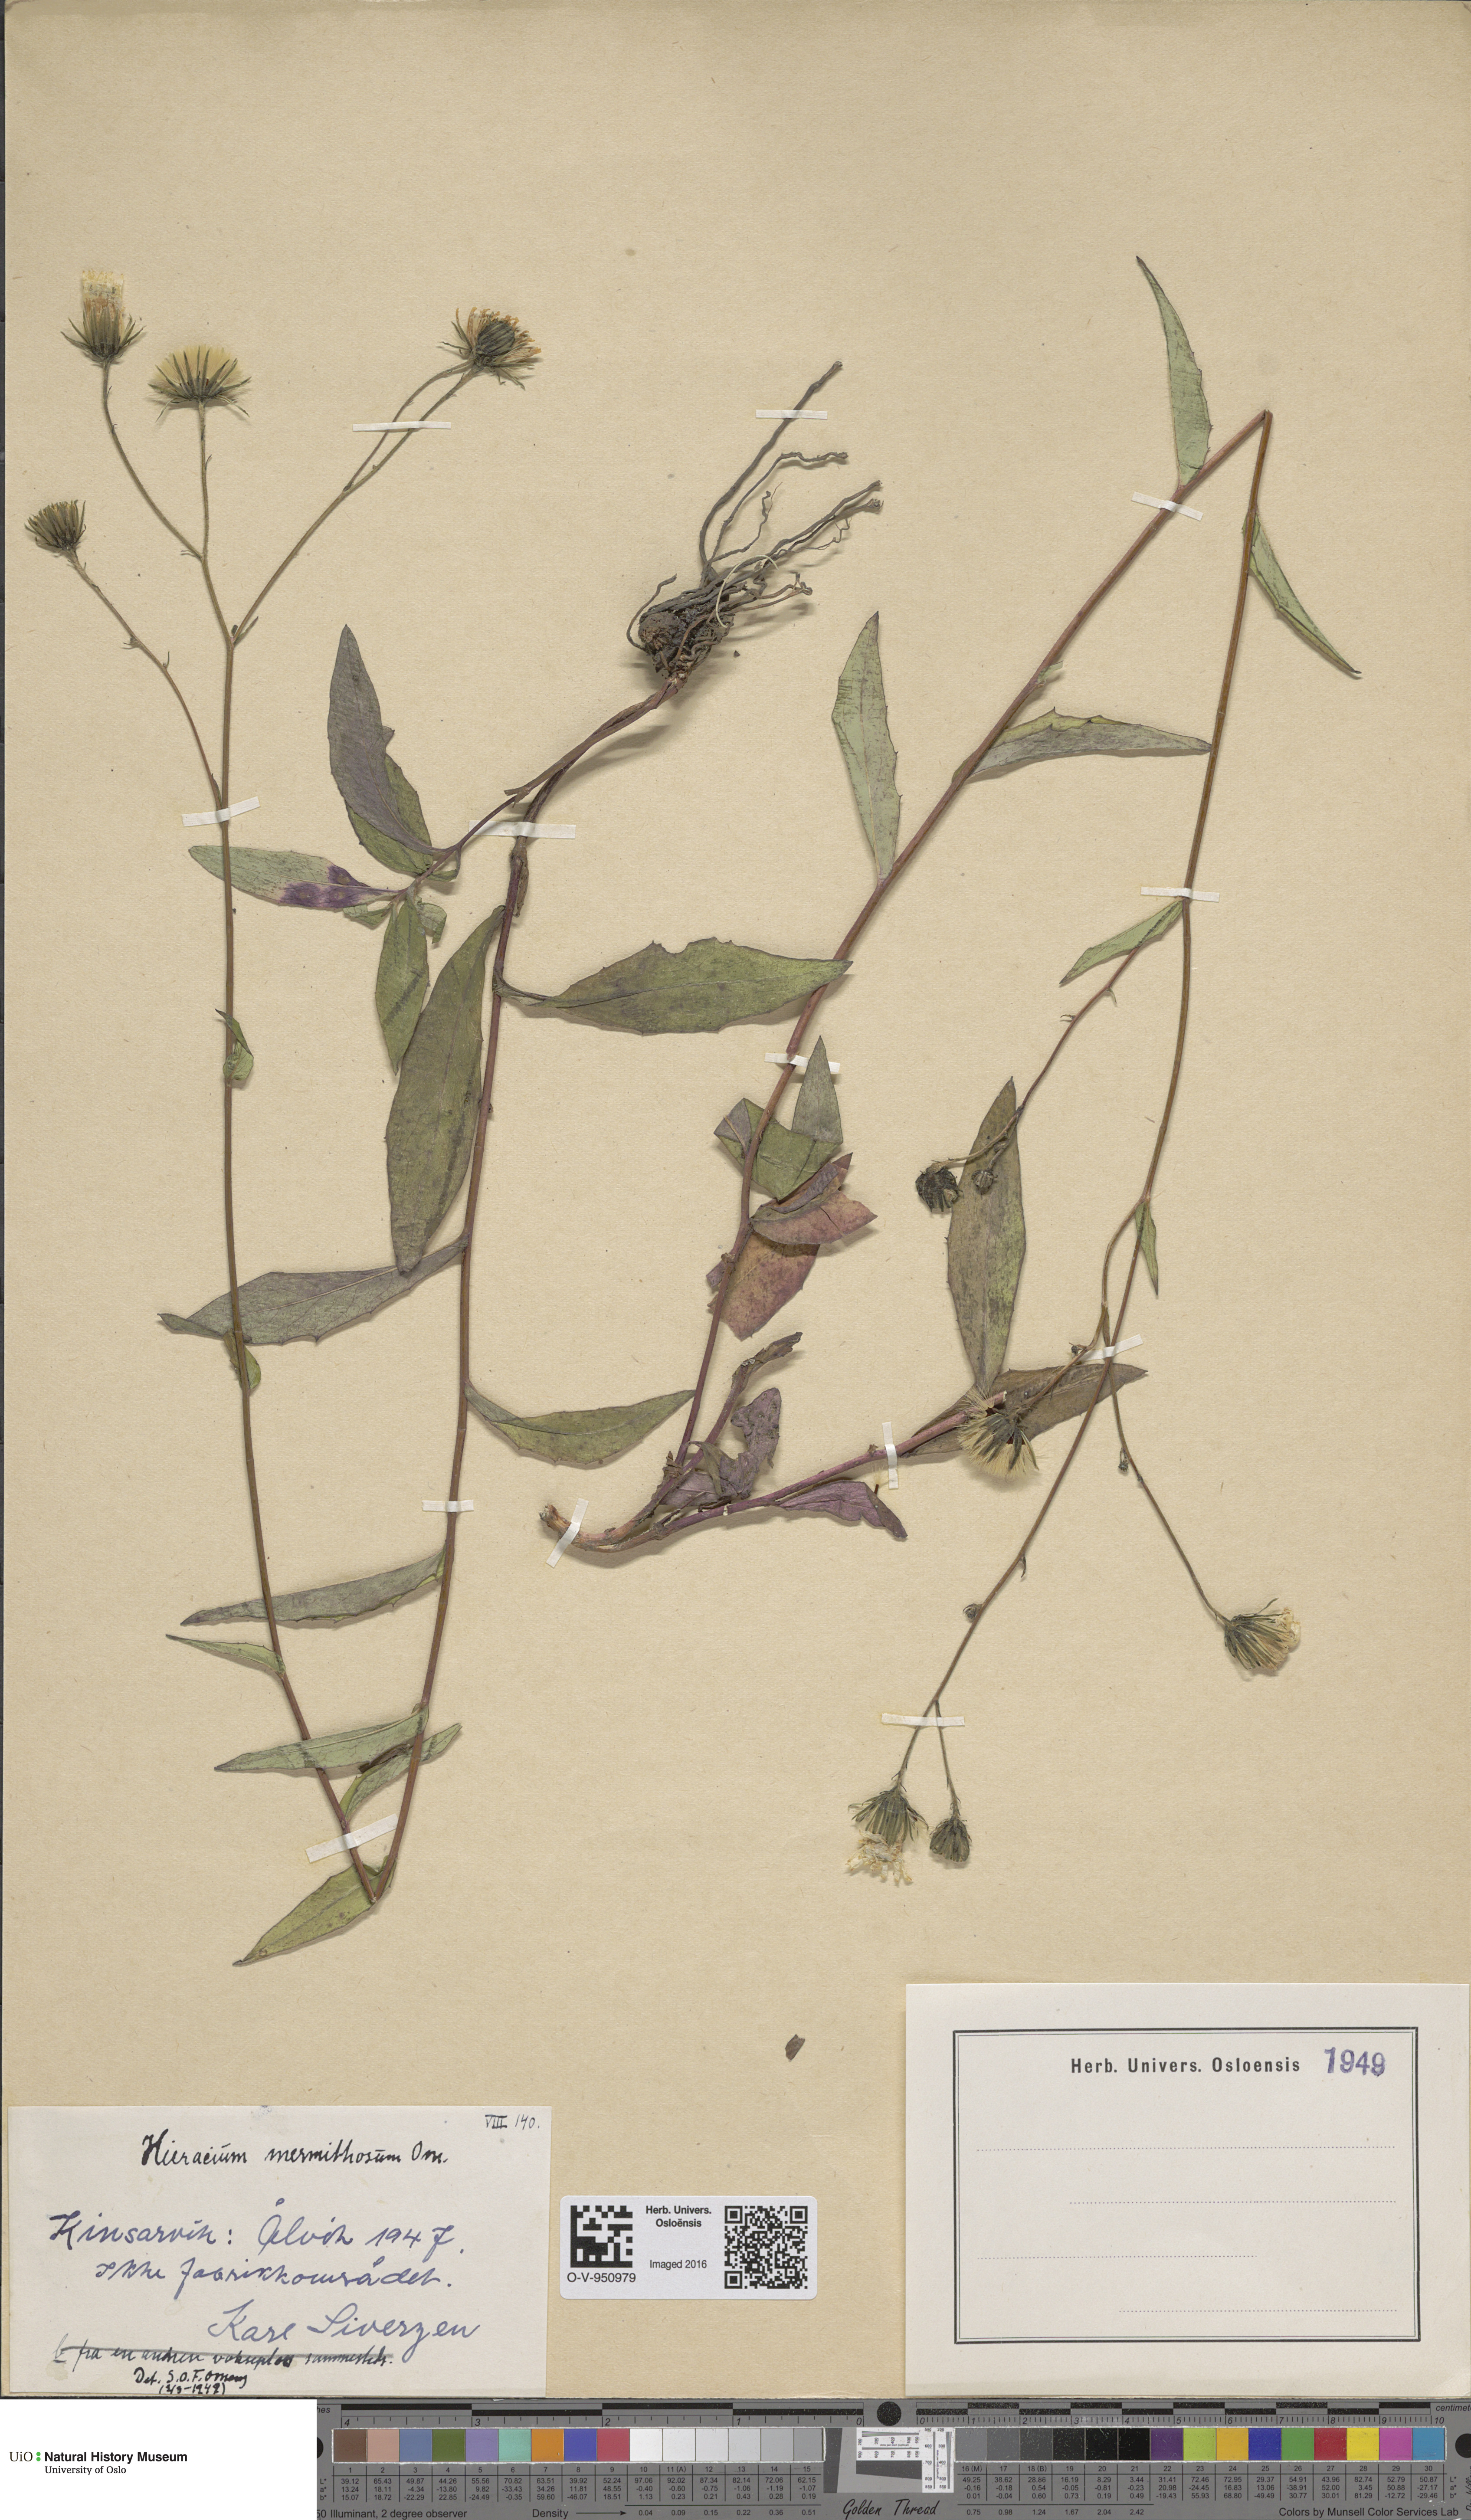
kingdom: Plantae
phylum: Tracheophyta
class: Magnoliopsida
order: Asterales
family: Asteraceae
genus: Hieracium
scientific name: Hieracium
